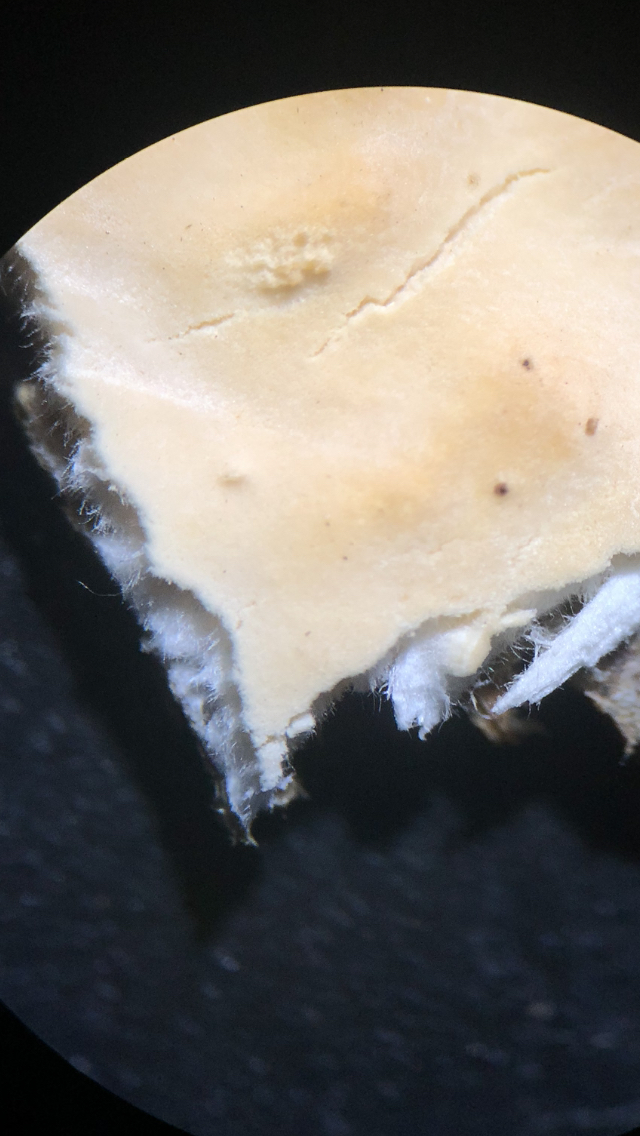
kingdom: Fungi
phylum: Basidiomycota
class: Agaricomycetes
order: Polyporales
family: Dacryobolaceae
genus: Dacryobolus
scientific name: Dacryobolus karstenii
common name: glat vulkanskorpe
